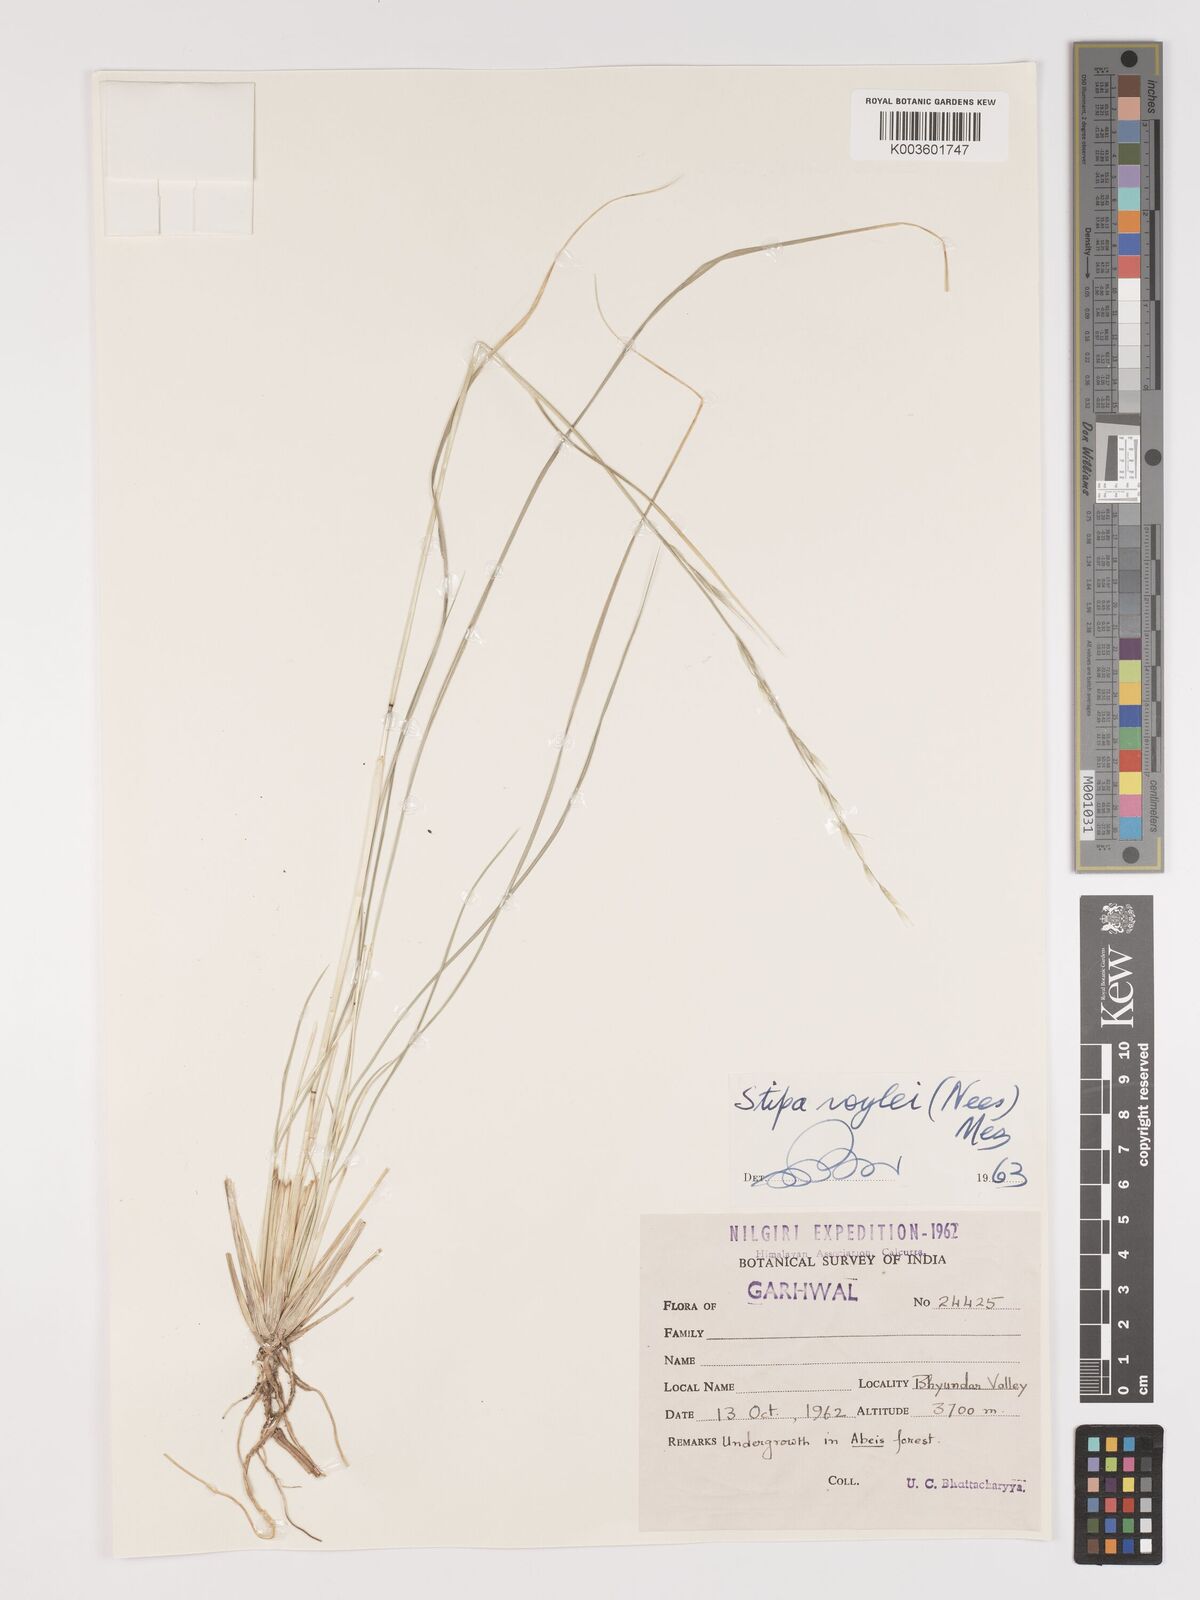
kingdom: Plantae
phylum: Tracheophyta
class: Liliopsida
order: Poales
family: Poaceae
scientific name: Poaceae
